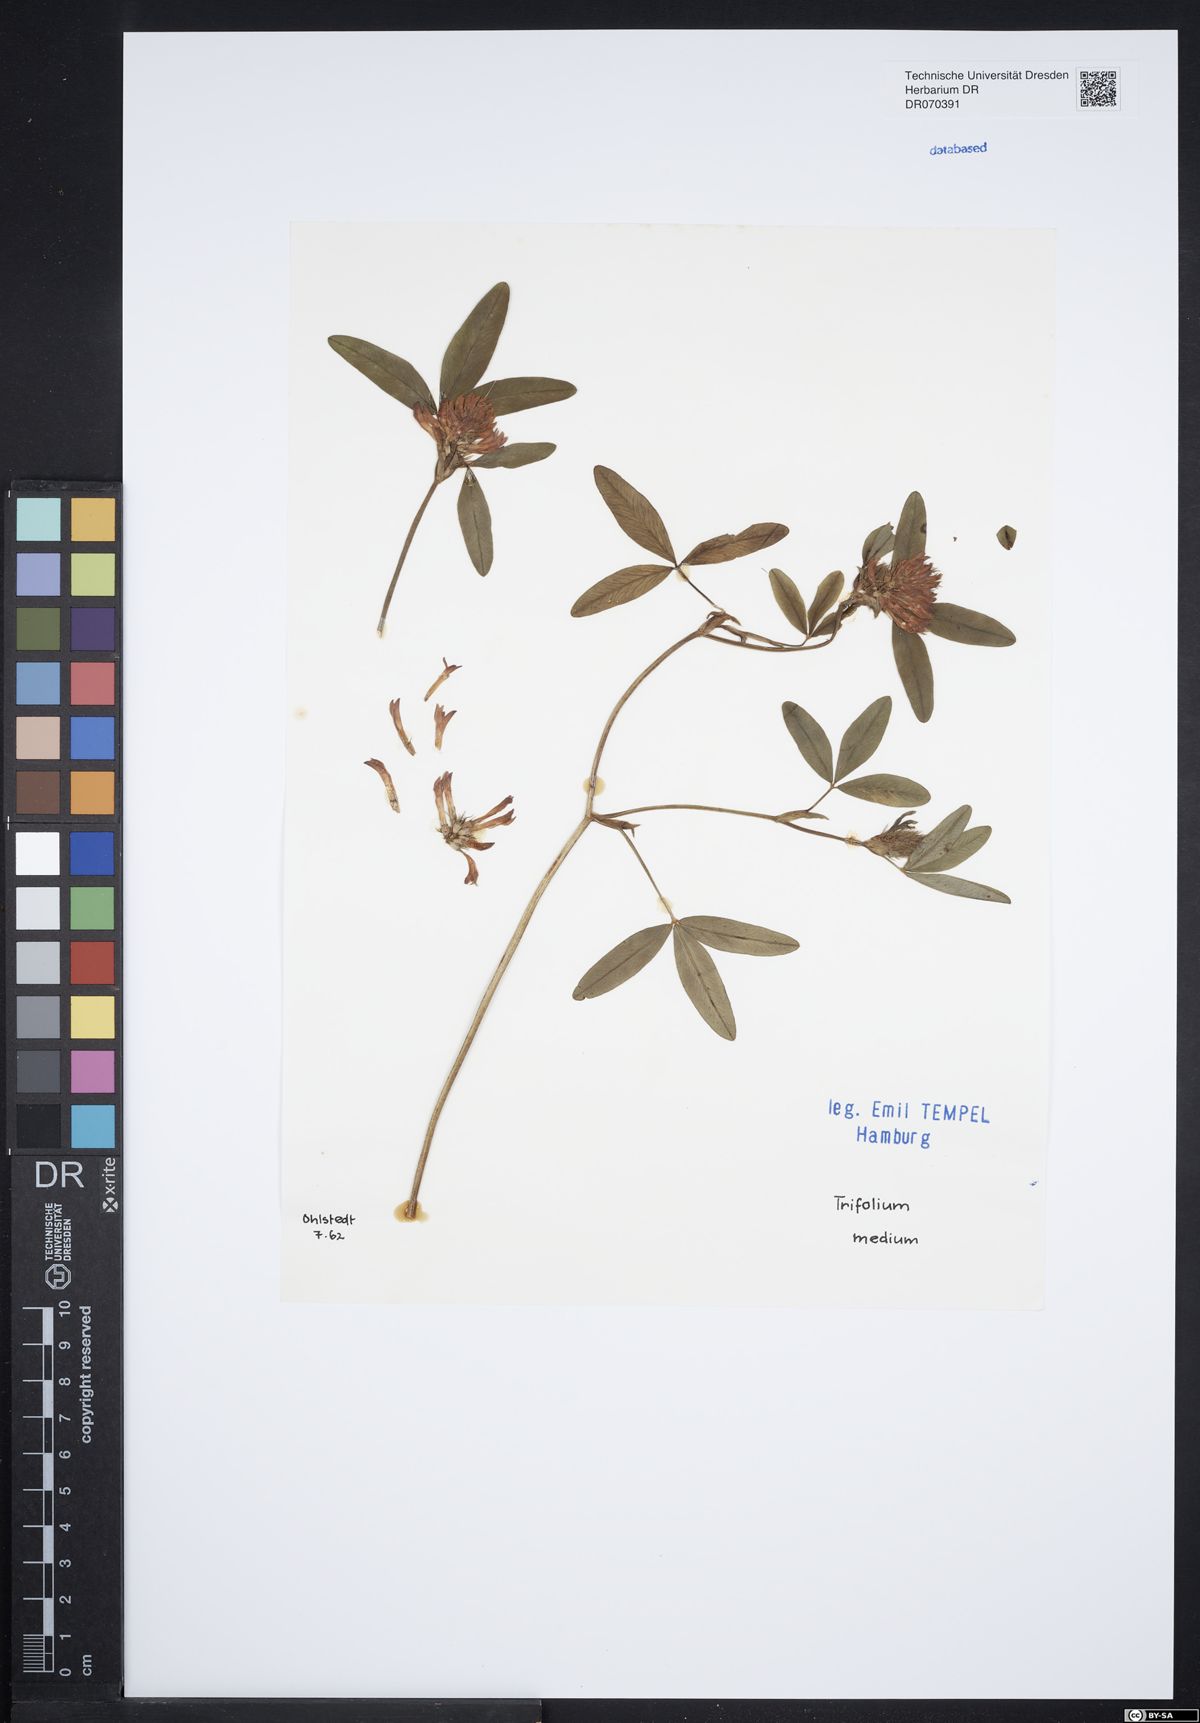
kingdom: Plantae
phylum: Tracheophyta
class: Magnoliopsida
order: Fabales
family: Fabaceae
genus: Trifolium
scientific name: Trifolium medium
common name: Zigzag clover
